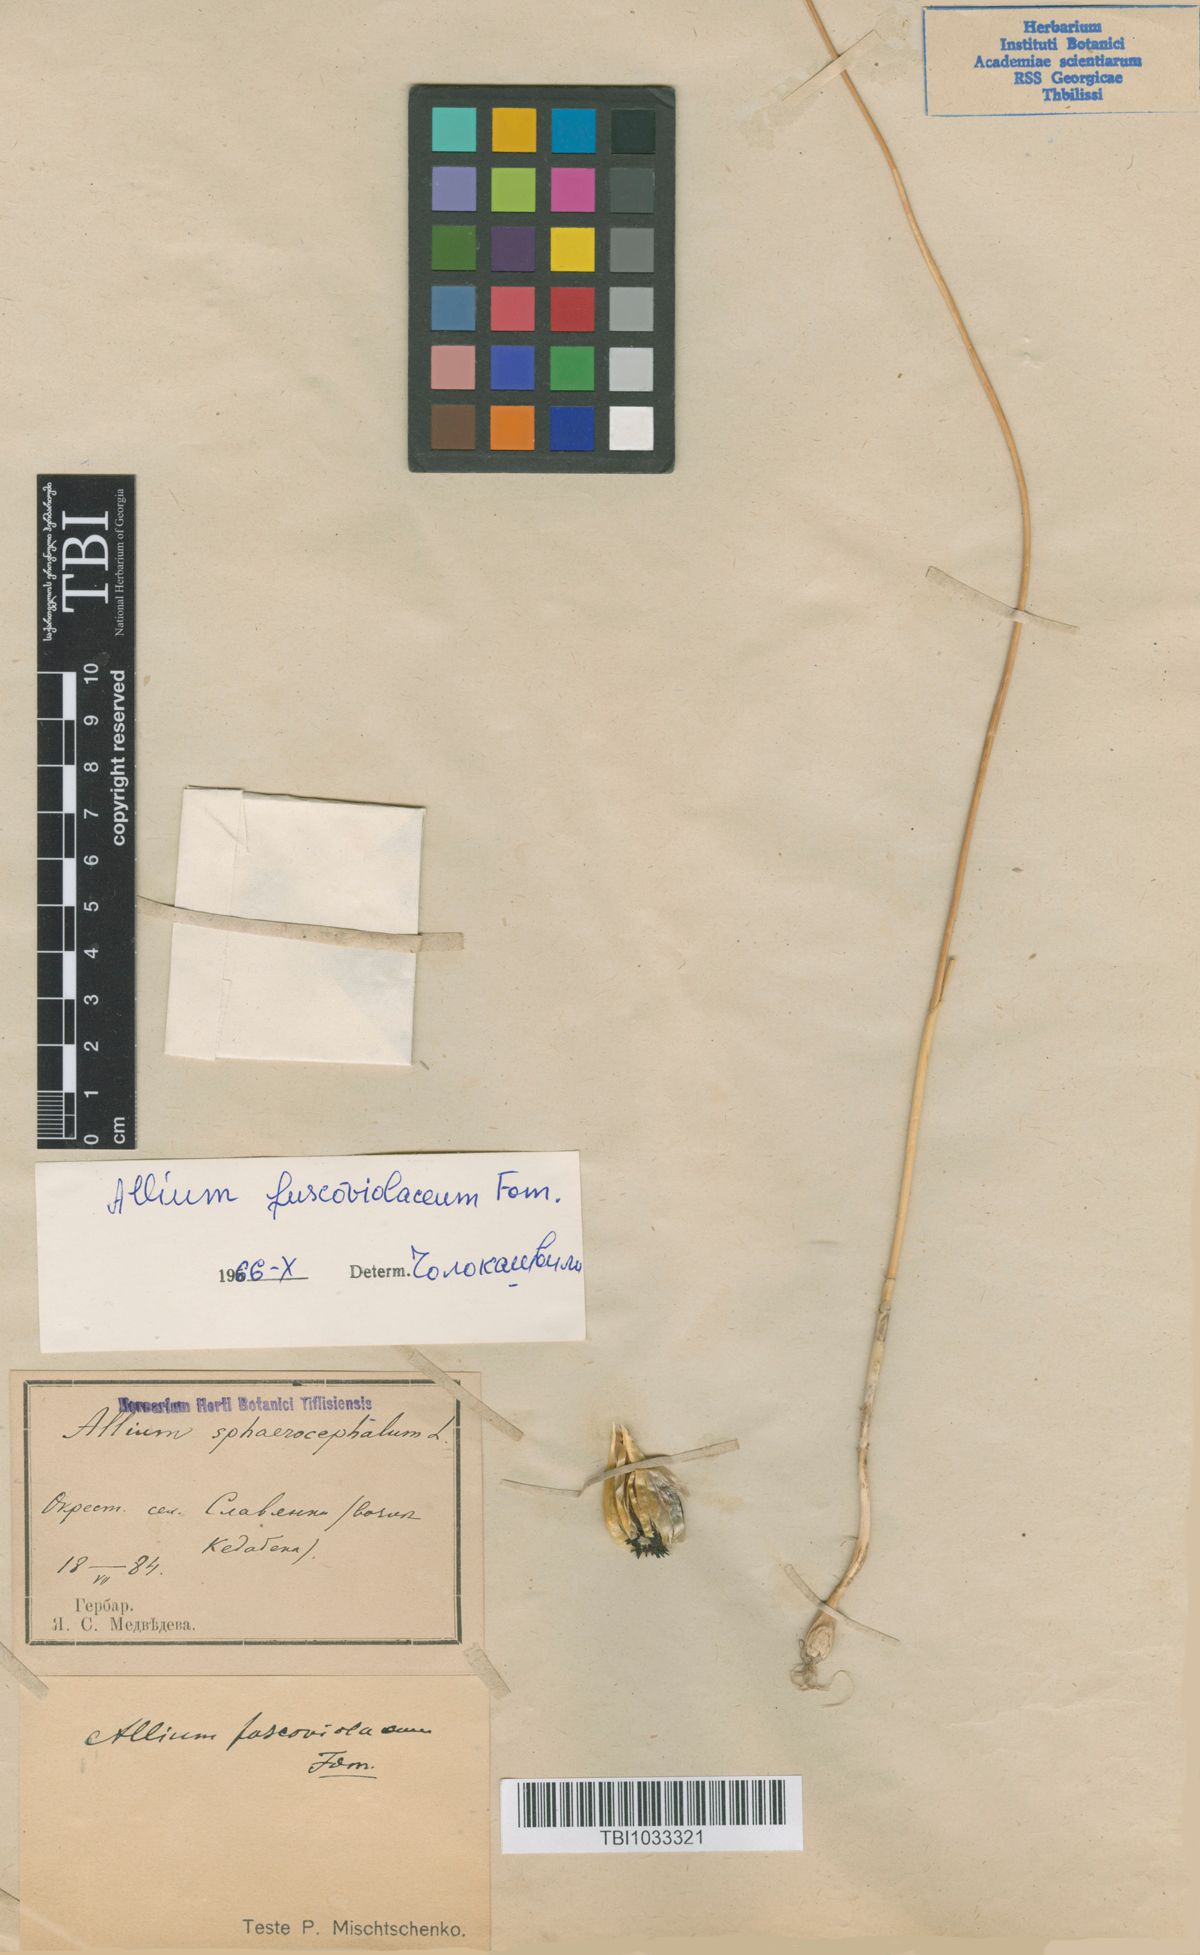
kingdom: Plantae
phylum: Tracheophyta
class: Liliopsida
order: Asparagales
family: Amaryllidaceae
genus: Allium
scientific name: Allium fuscoviolaceum
